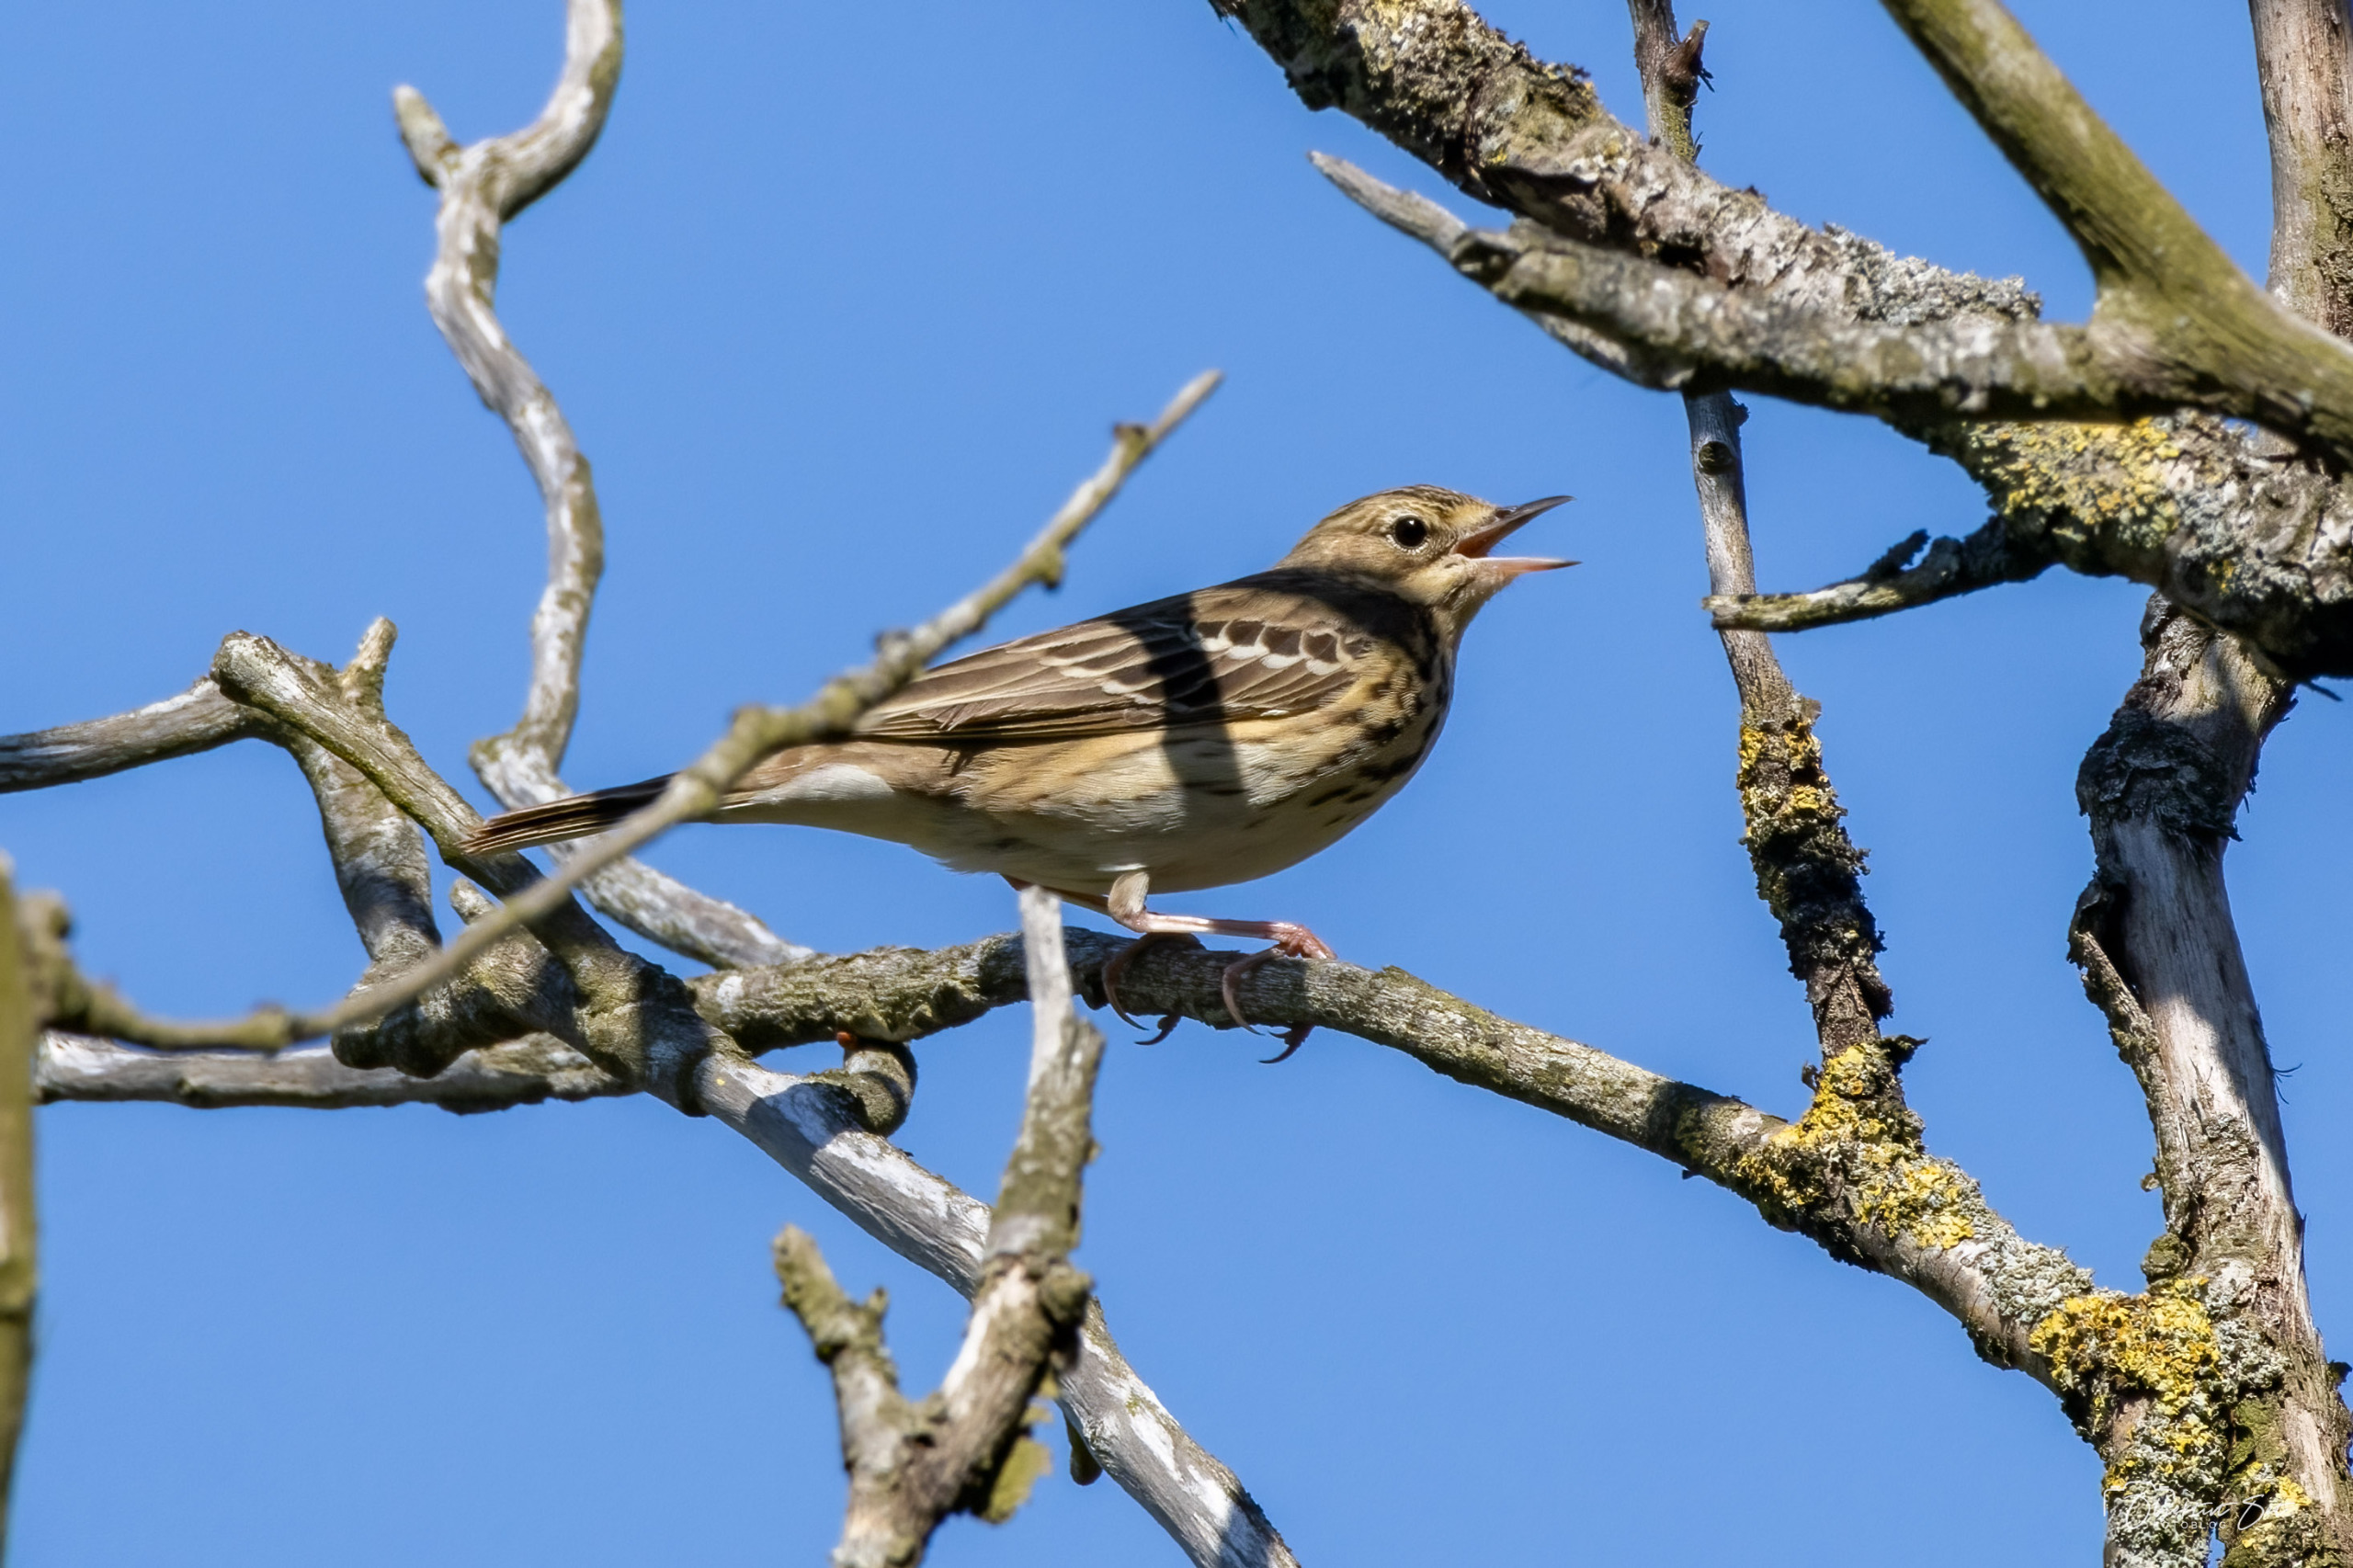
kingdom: Animalia
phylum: Chordata
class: Aves
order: Passeriformes
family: Motacillidae
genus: Anthus
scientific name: Anthus trivialis
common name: Skovpiber
